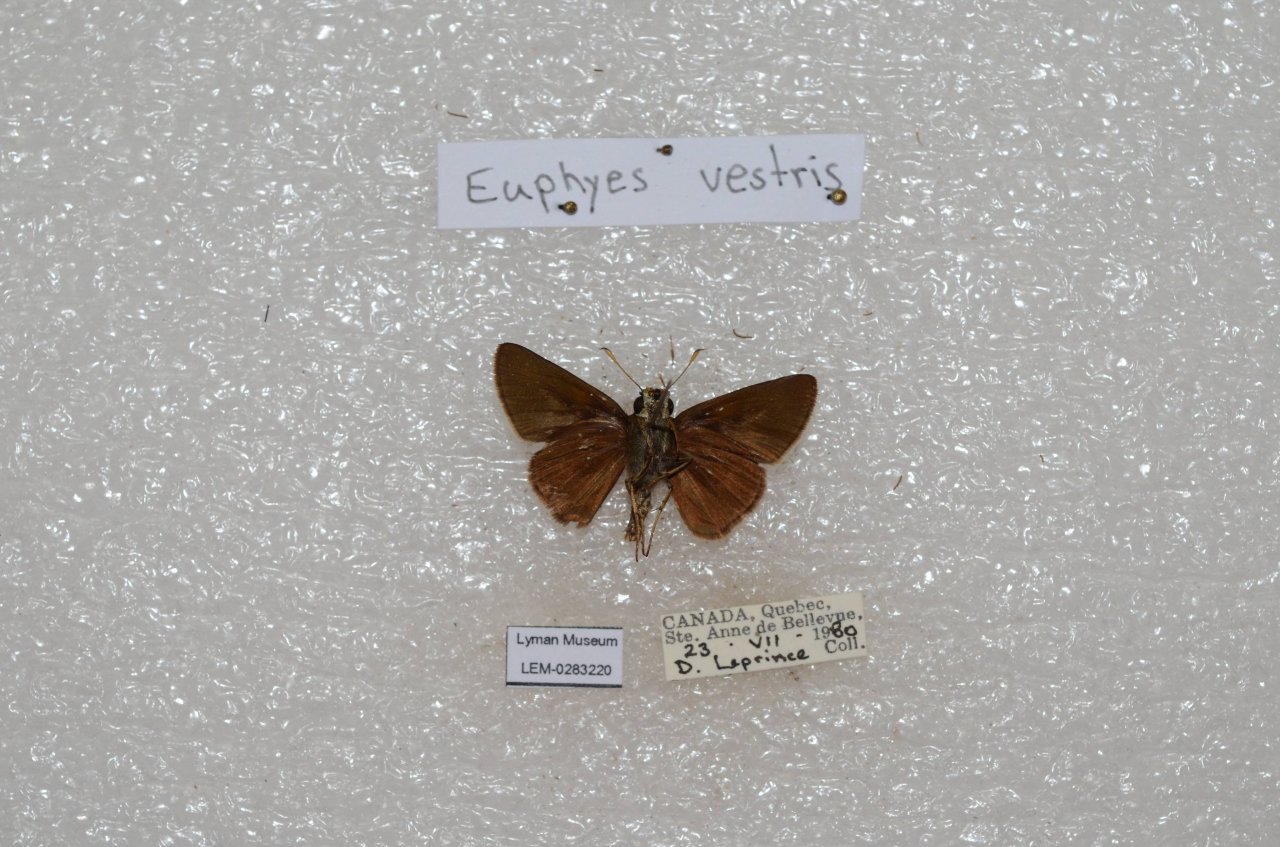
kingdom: Animalia
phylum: Arthropoda
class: Insecta
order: Lepidoptera
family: Hesperiidae
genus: Euphyes
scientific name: Euphyes vestris
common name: Dun Skipper
